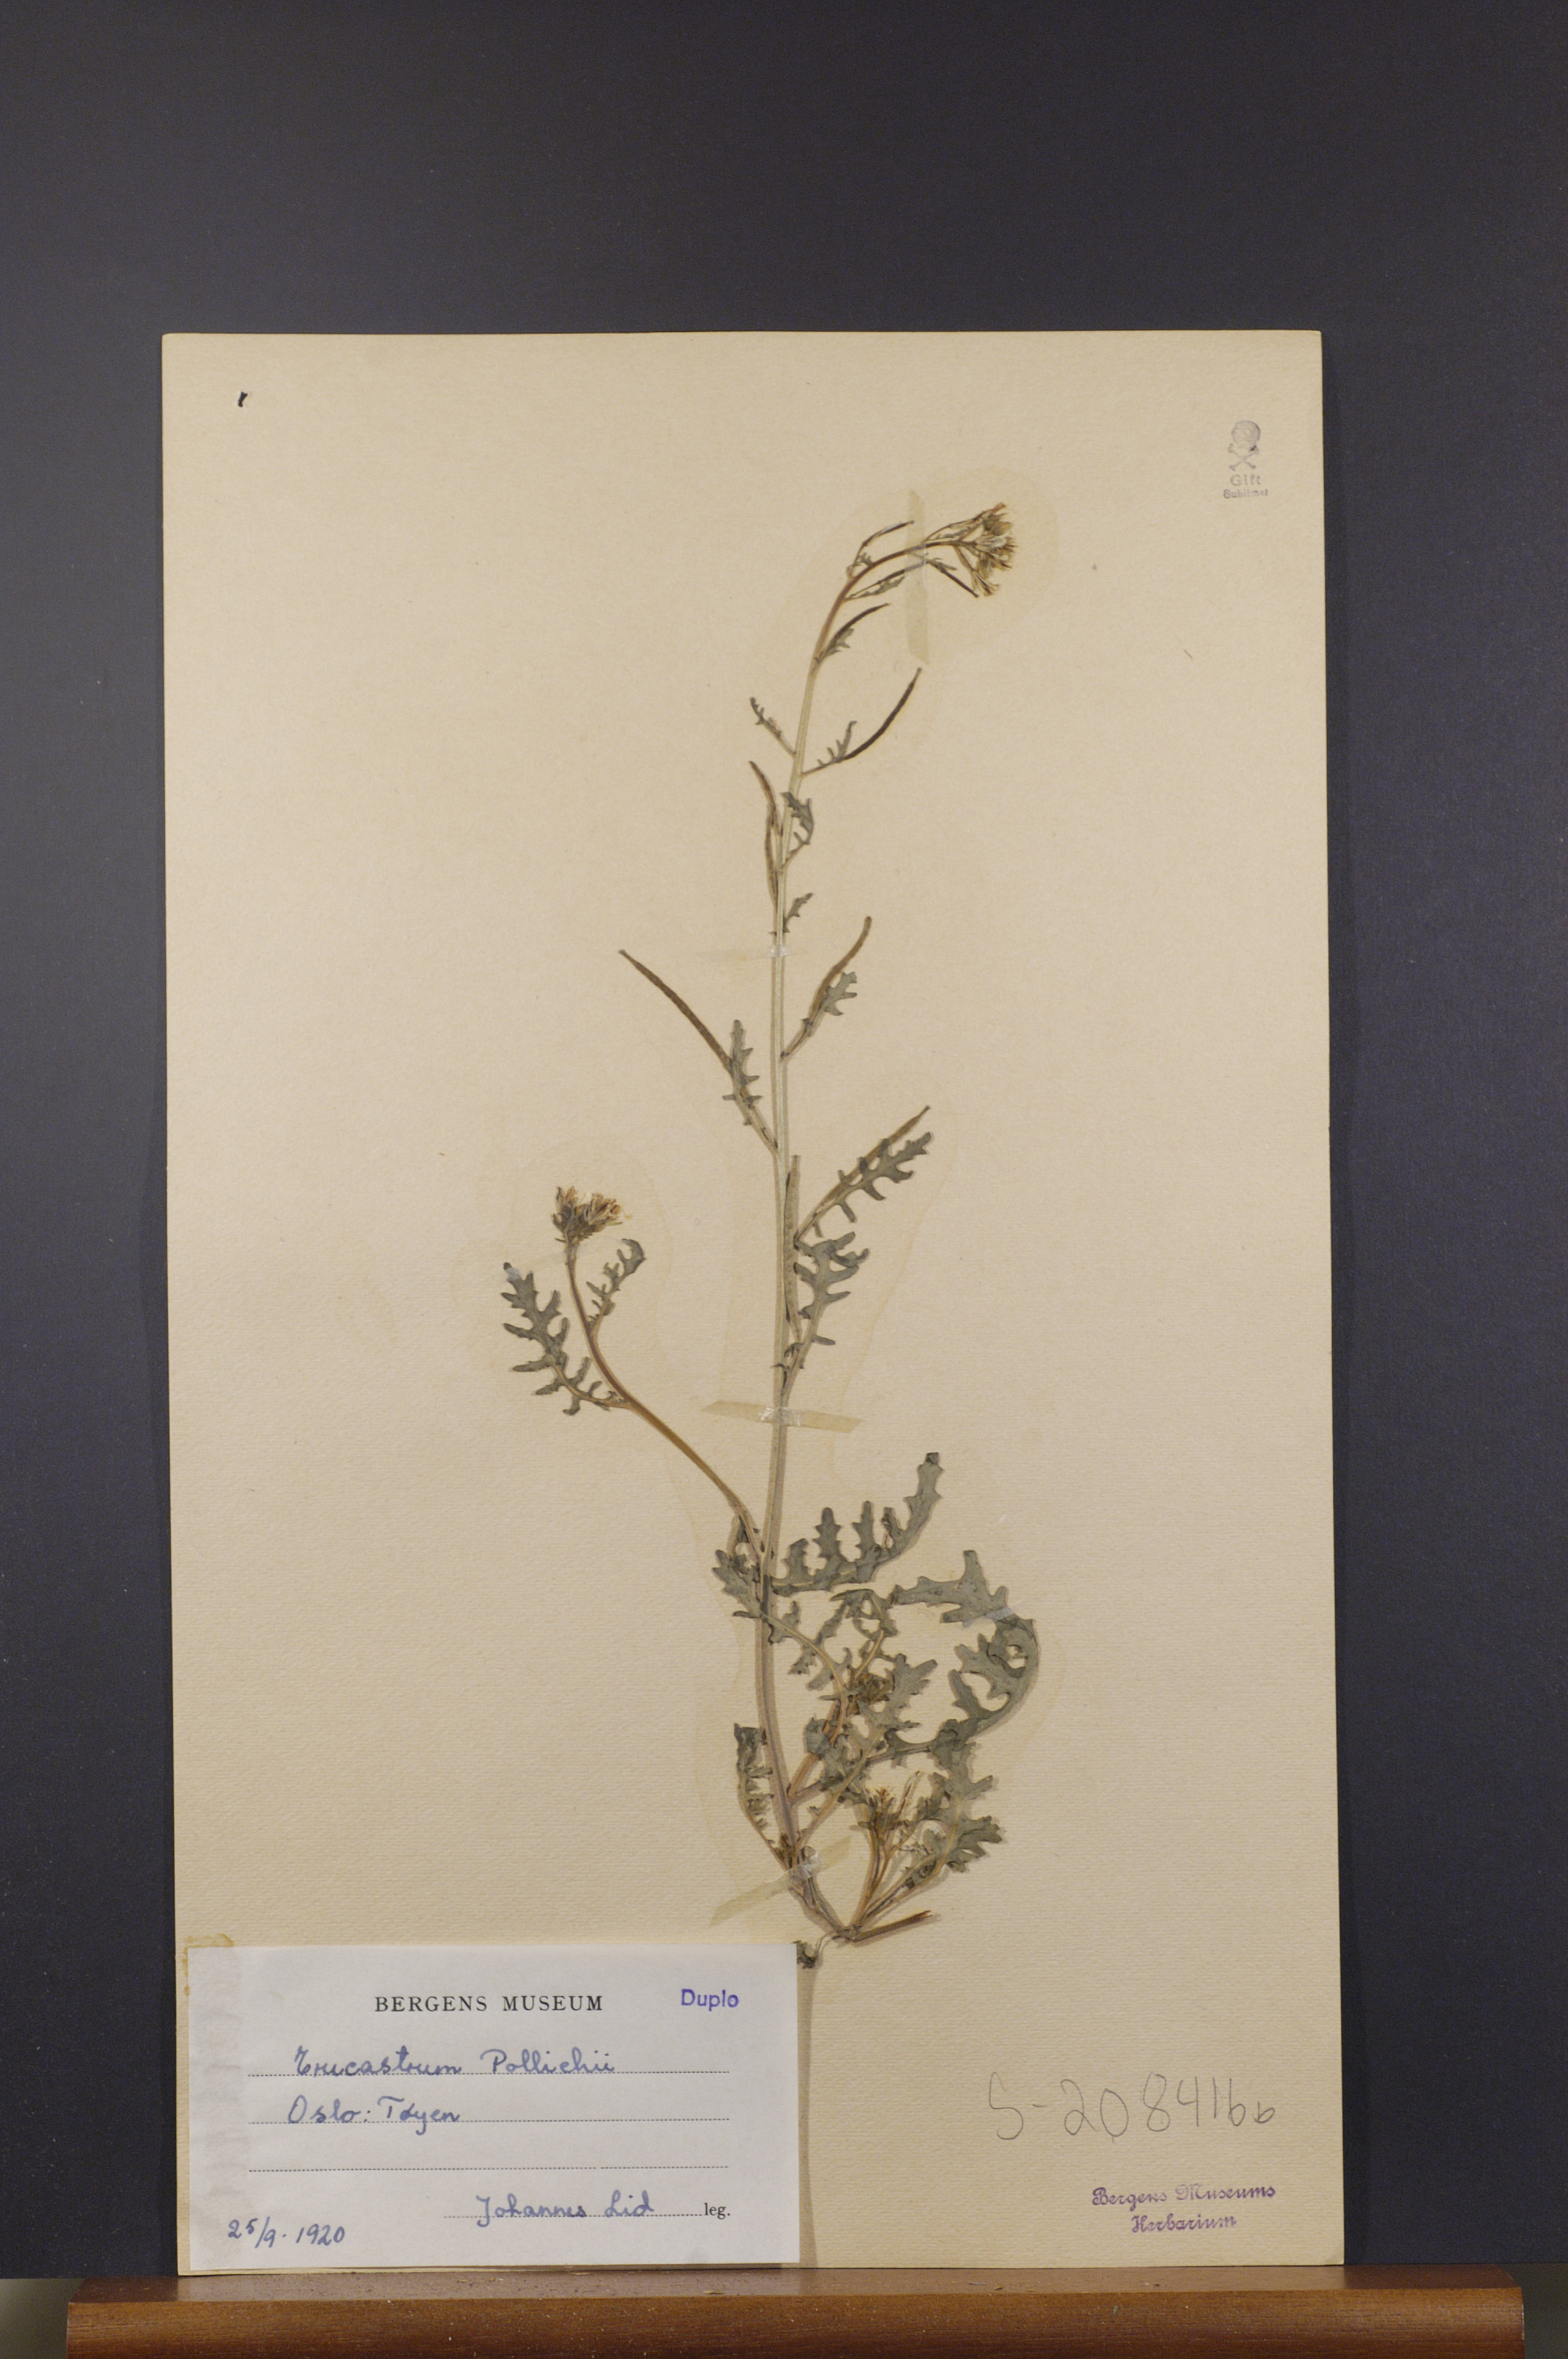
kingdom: Plantae
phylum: Tracheophyta
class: Magnoliopsida
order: Brassicales
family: Brassicaceae
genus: Erucastrum
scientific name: Erucastrum gallicum
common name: Hairy rocket
